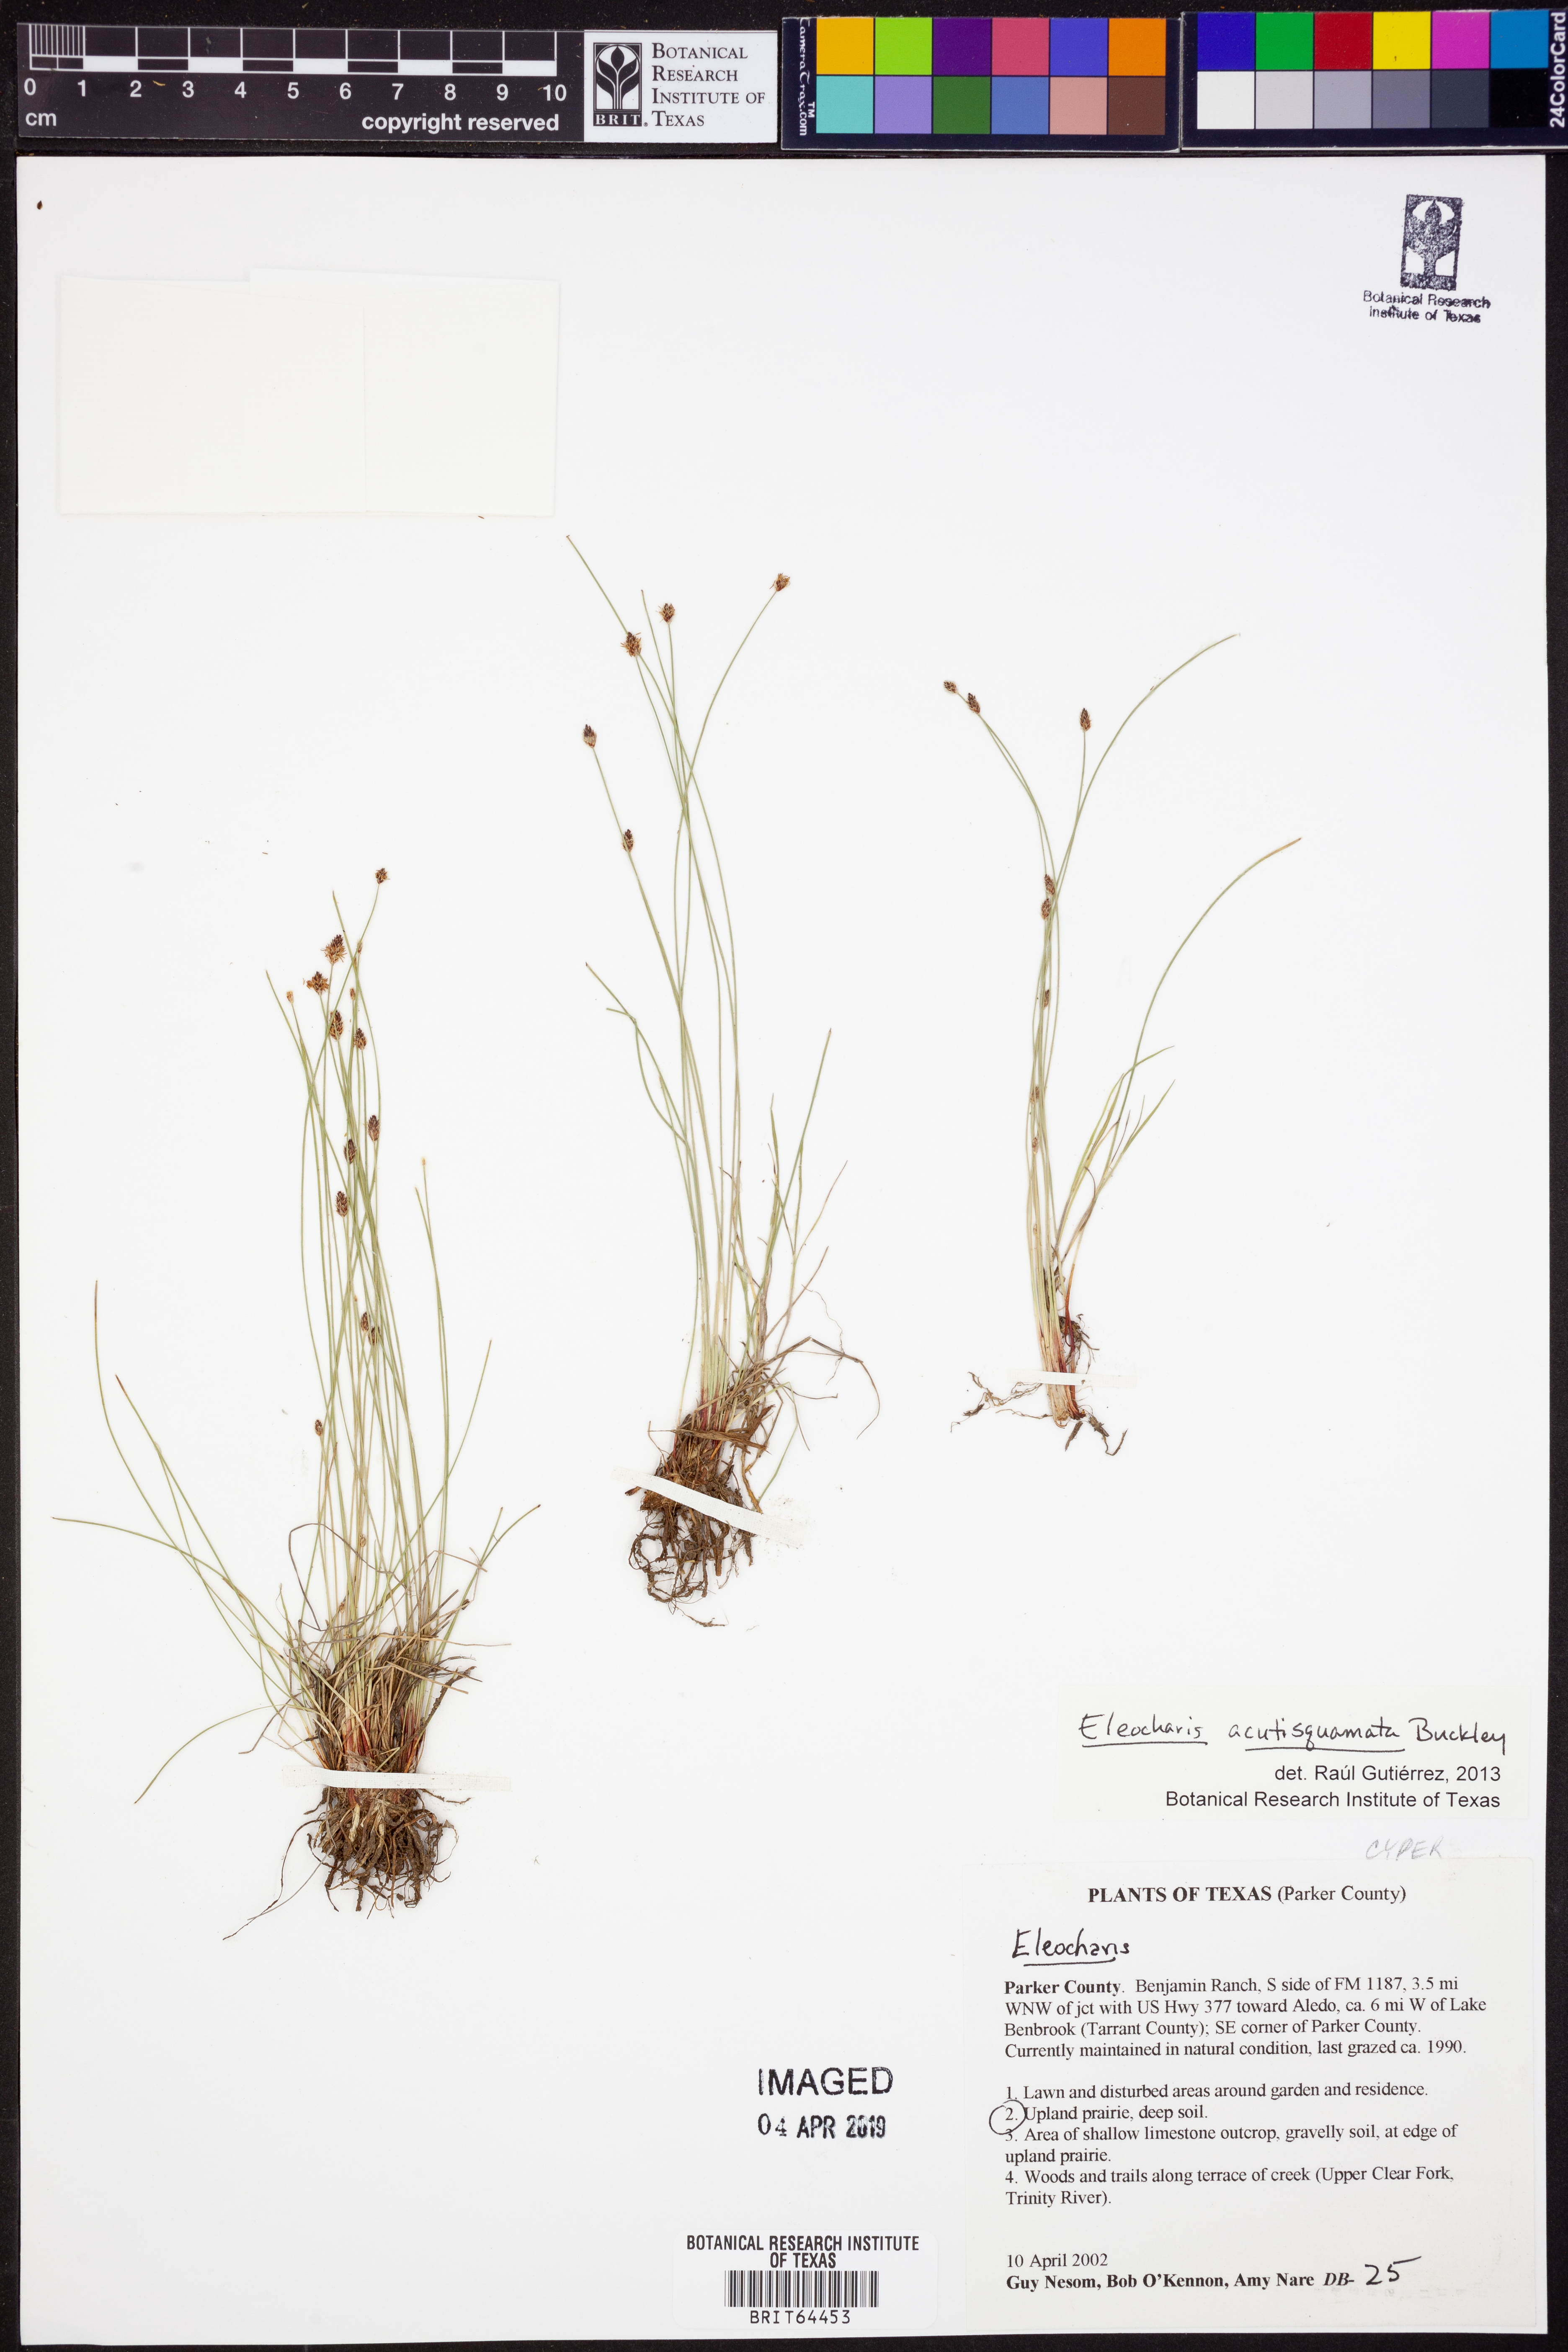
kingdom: Plantae
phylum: Tracheophyta
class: Liliopsida
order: Poales
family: Cyperaceae
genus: Eleocharis
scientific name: Eleocharis compressa
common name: Flat-stem spike-rush
